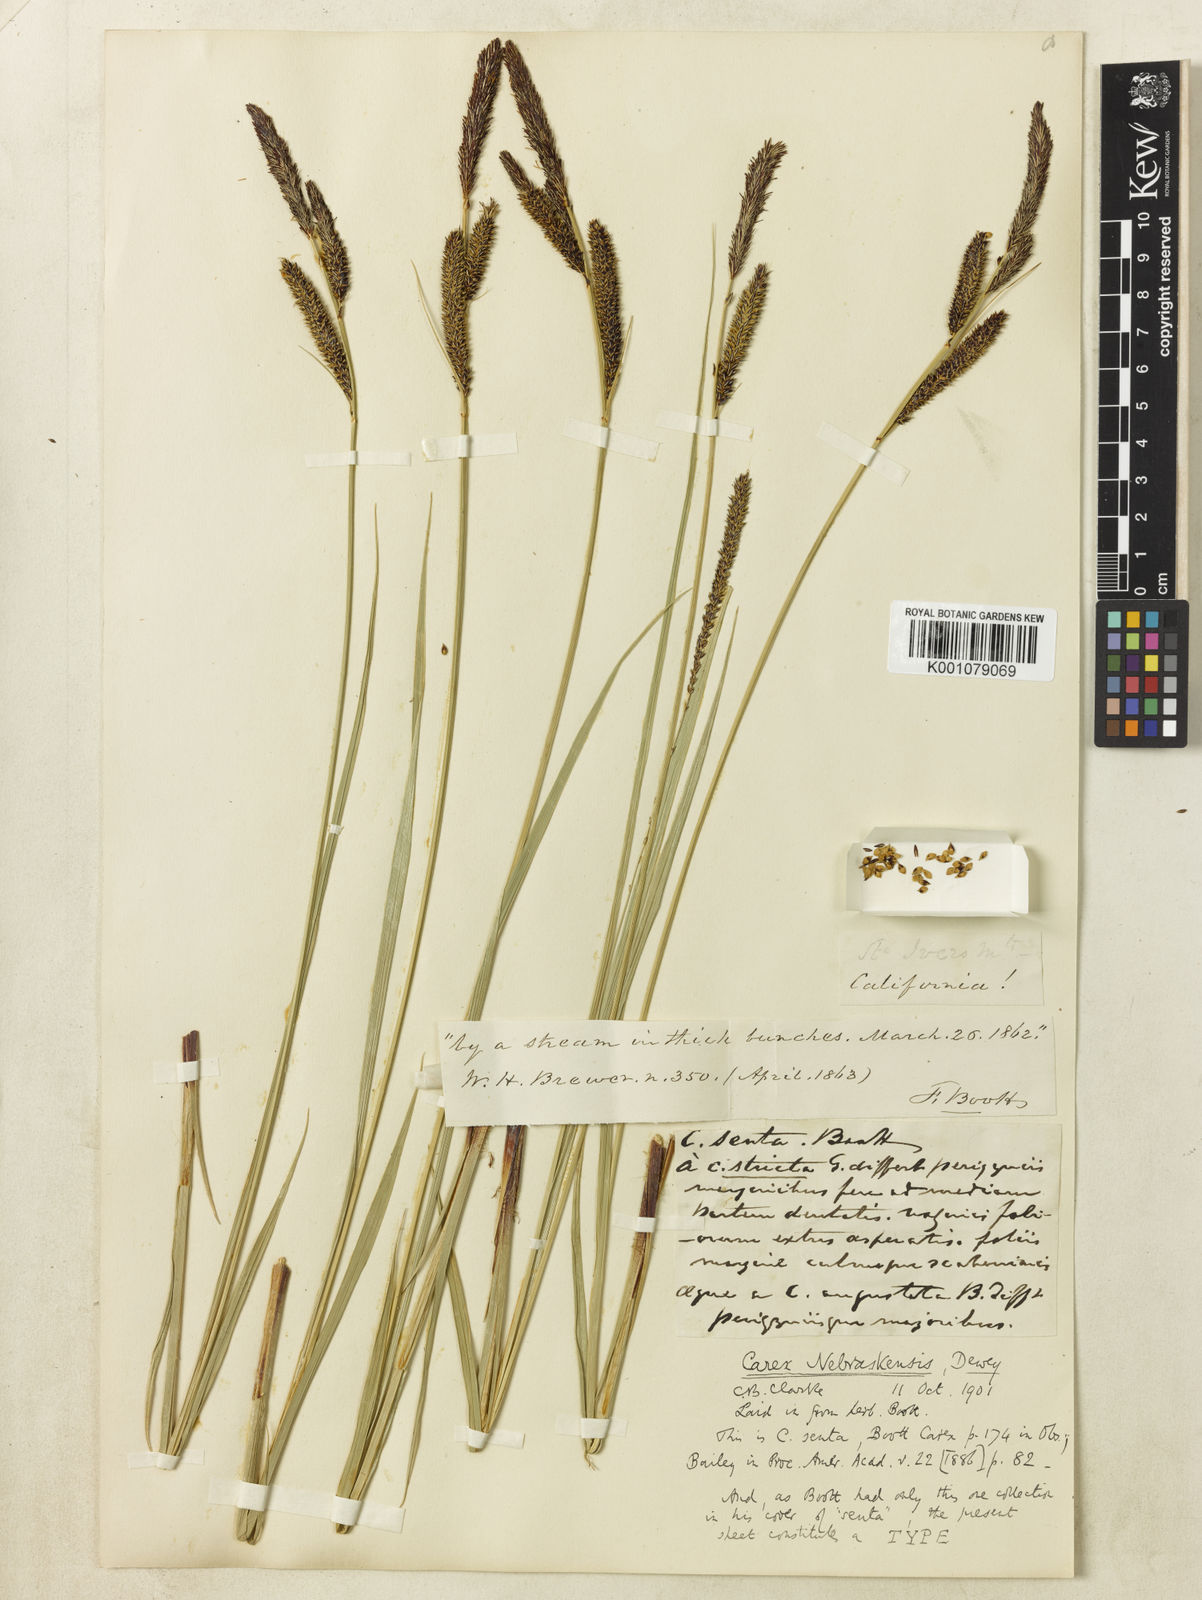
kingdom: Plantae
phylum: Tracheophyta
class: Liliopsida
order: Poales
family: Cyperaceae
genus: Carex
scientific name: Carex senta
